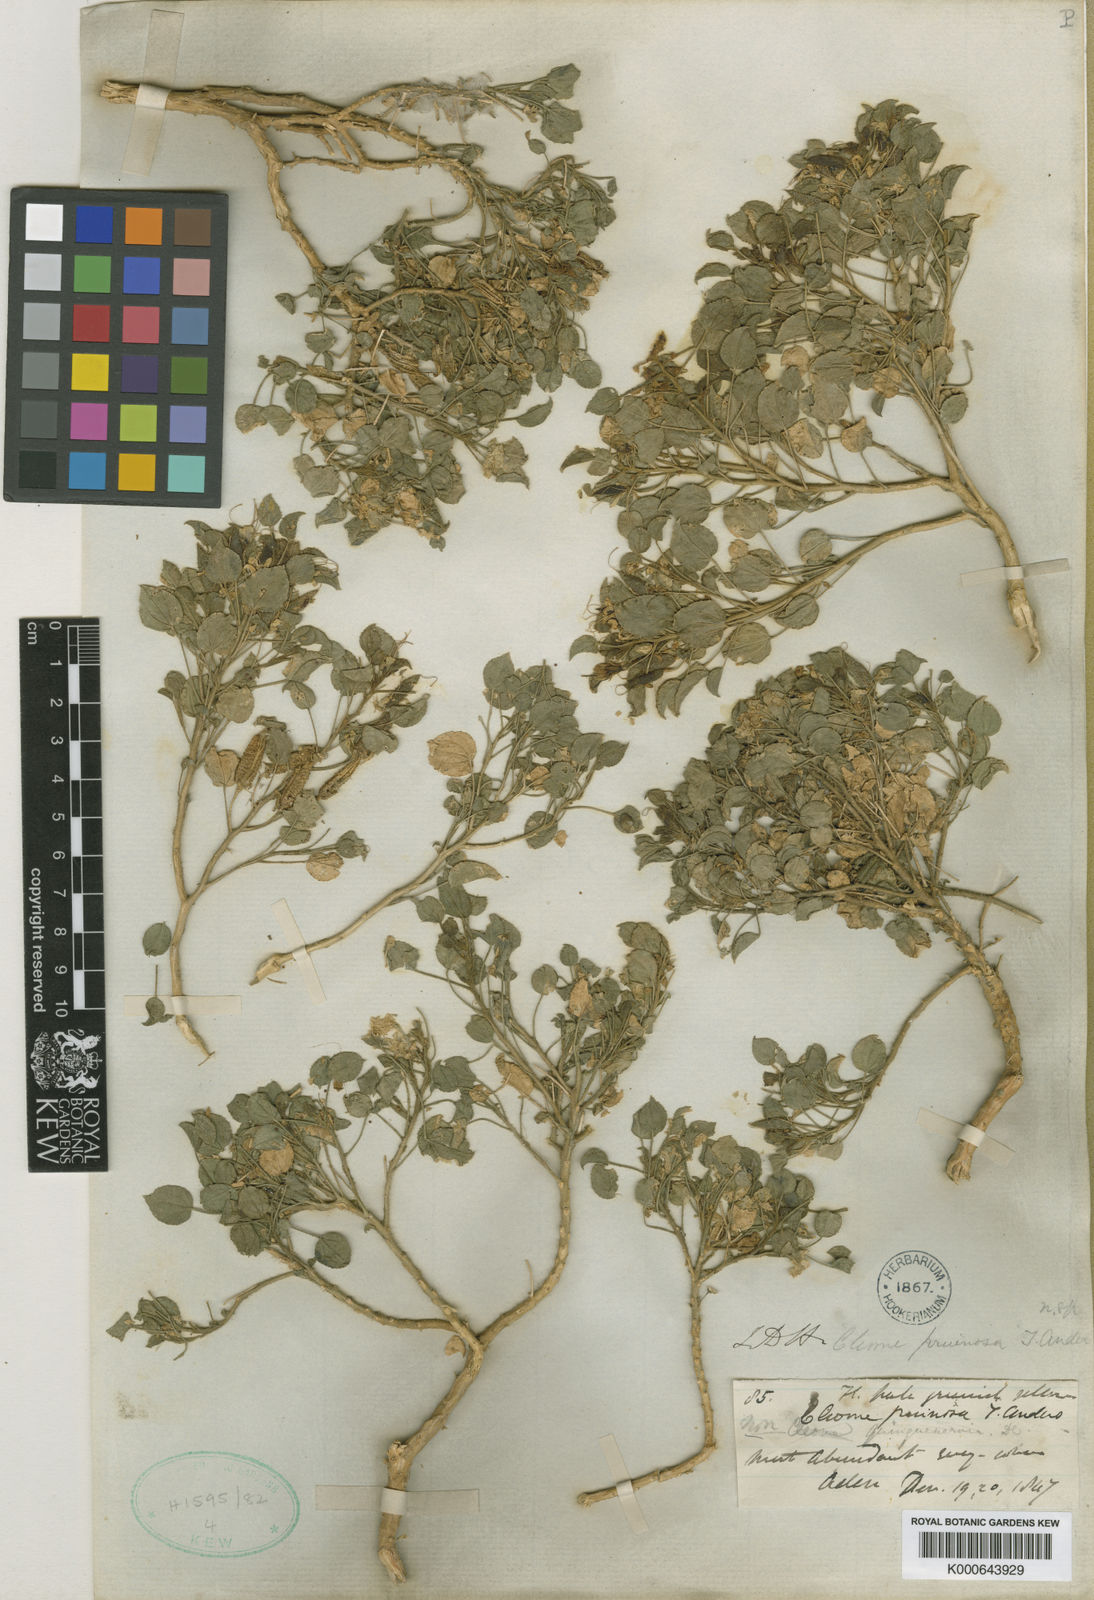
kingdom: Plantae
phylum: Tracheophyta
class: Magnoliopsida
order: Brassicales
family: Cleomaceae
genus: Rorida
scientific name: Rorida droserifolia
